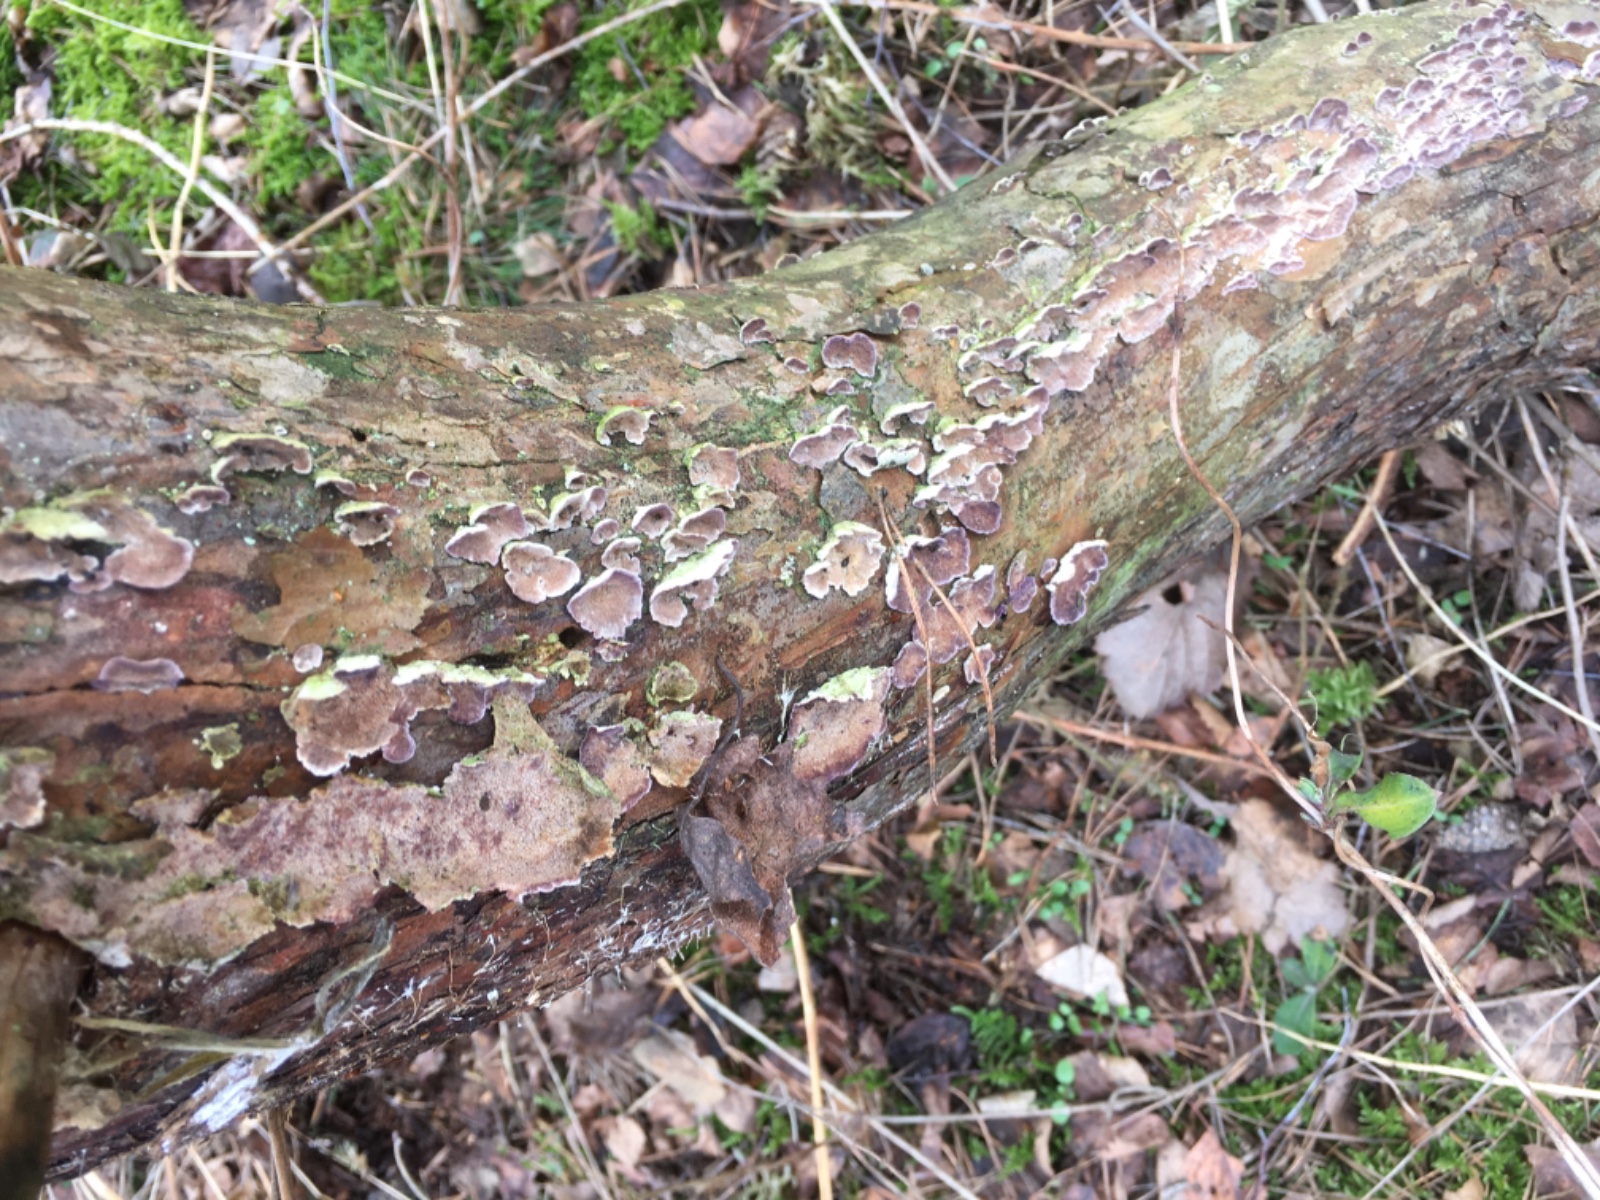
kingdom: Fungi
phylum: Basidiomycota
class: Agaricomycetes
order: Hymenochaetales
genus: Trichaptum
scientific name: Trichaptum fuscoviolaceum
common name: tandet violporesvamp
